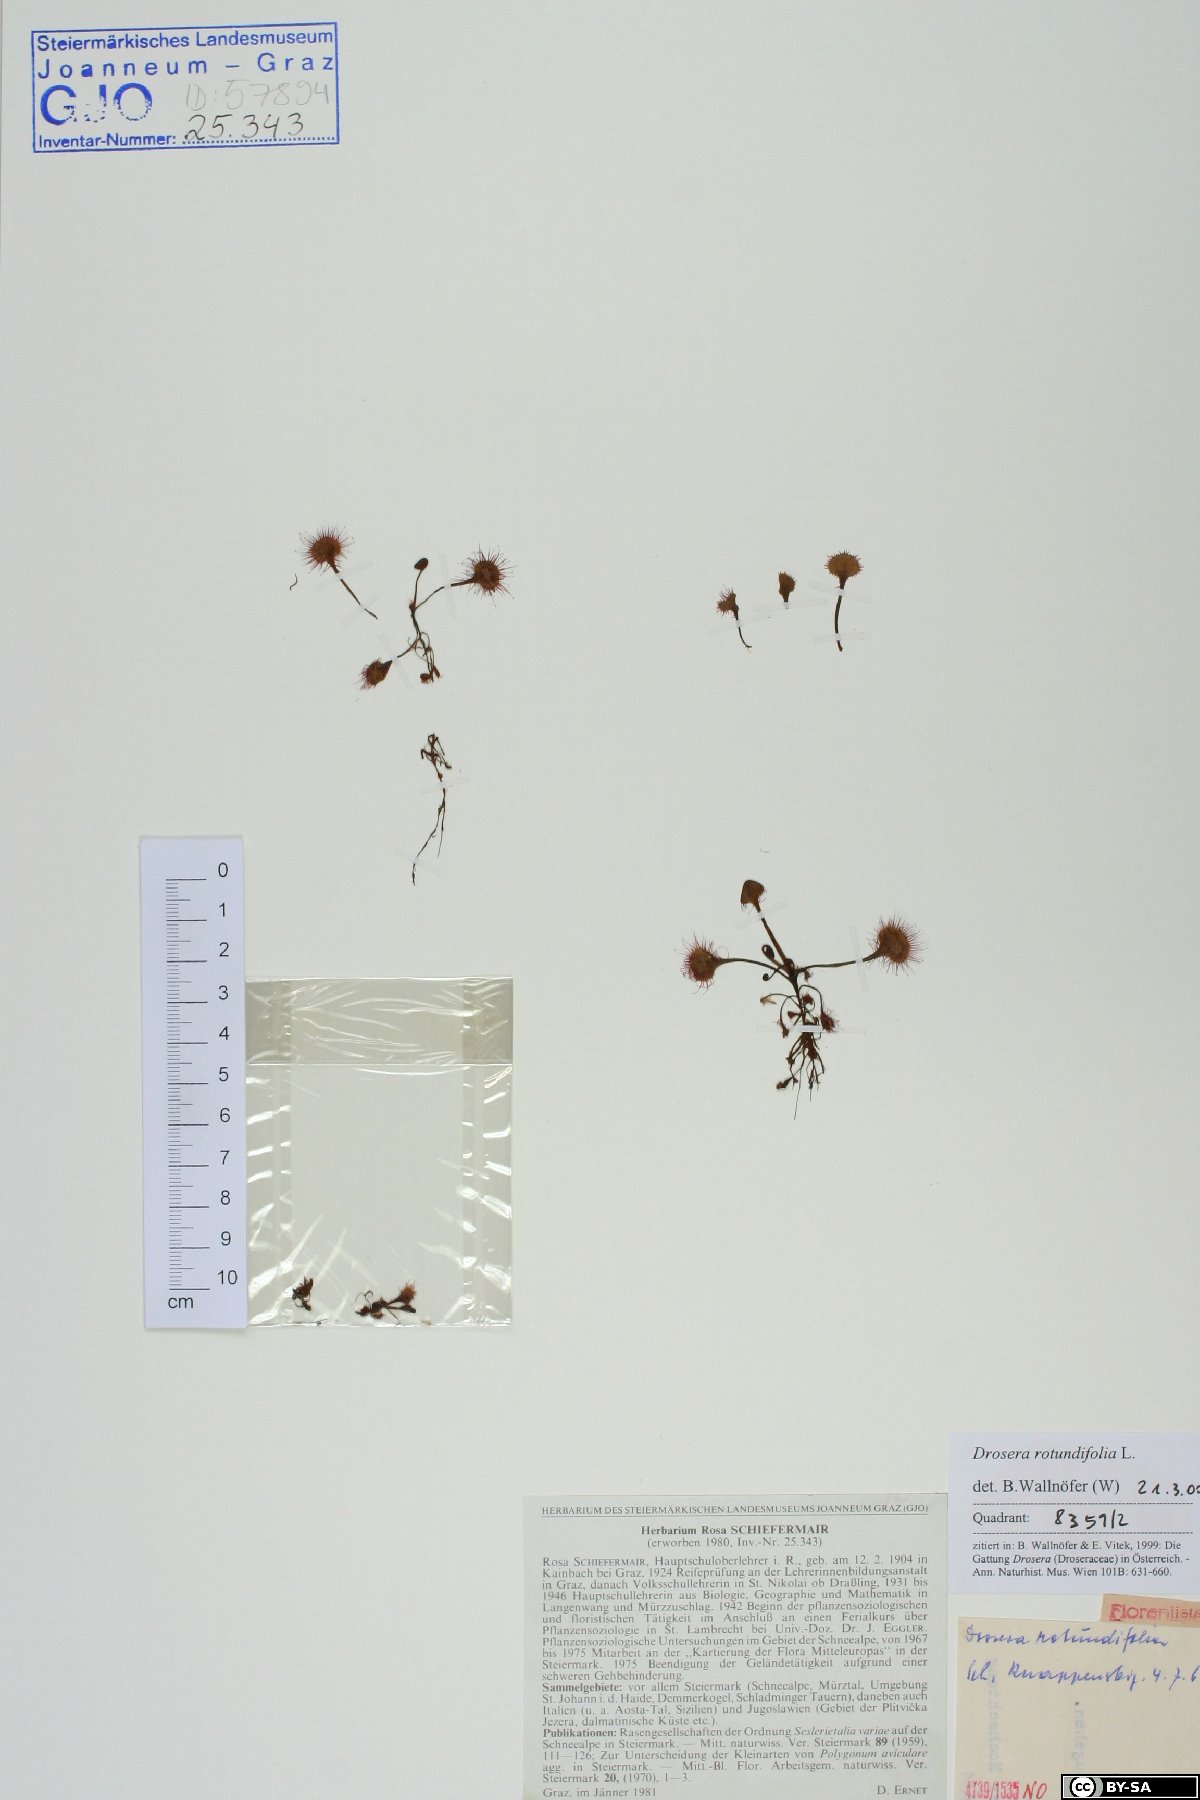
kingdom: Plantae
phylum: Tracheophyta
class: Magnoliopsida
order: Caryophyllales
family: Droseraceae
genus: Drosera
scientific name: Drosera rotundifolia
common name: Round-leaved sundew
